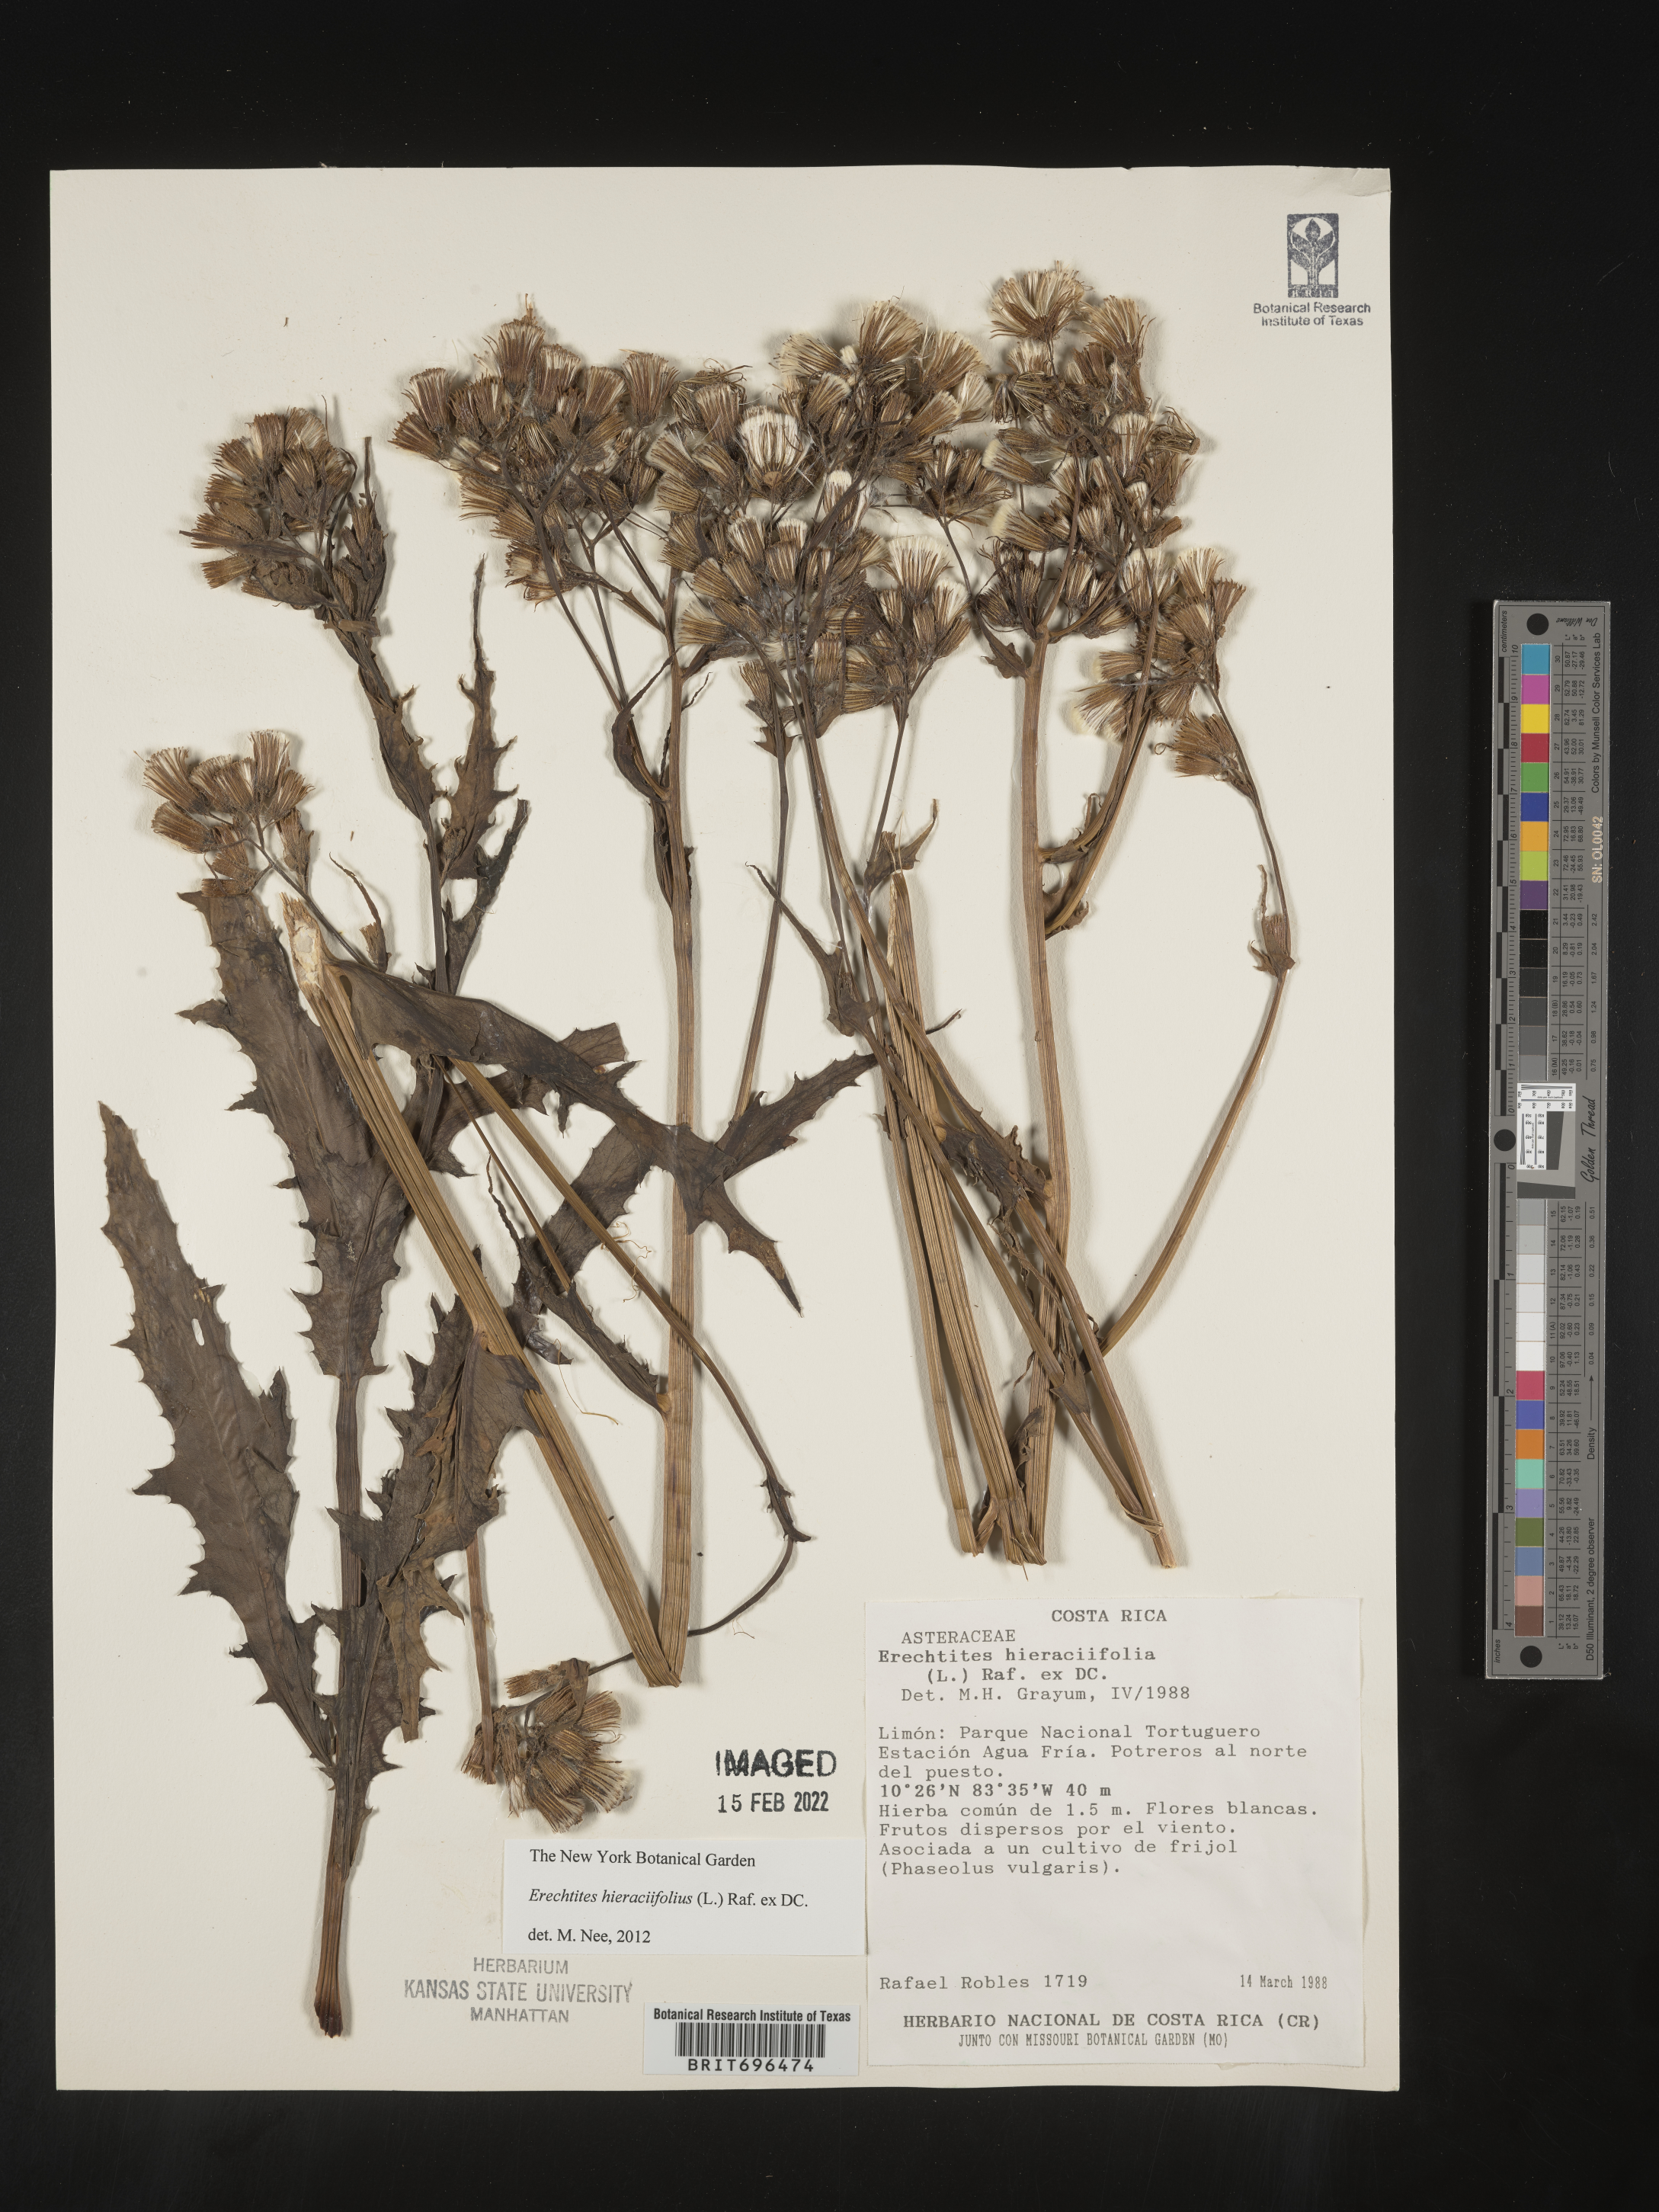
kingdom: Plantae
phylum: Tracheophyta
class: Magnoliopsida
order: Asterales
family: Asteraceae
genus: Erechtites
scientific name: Erechtites
